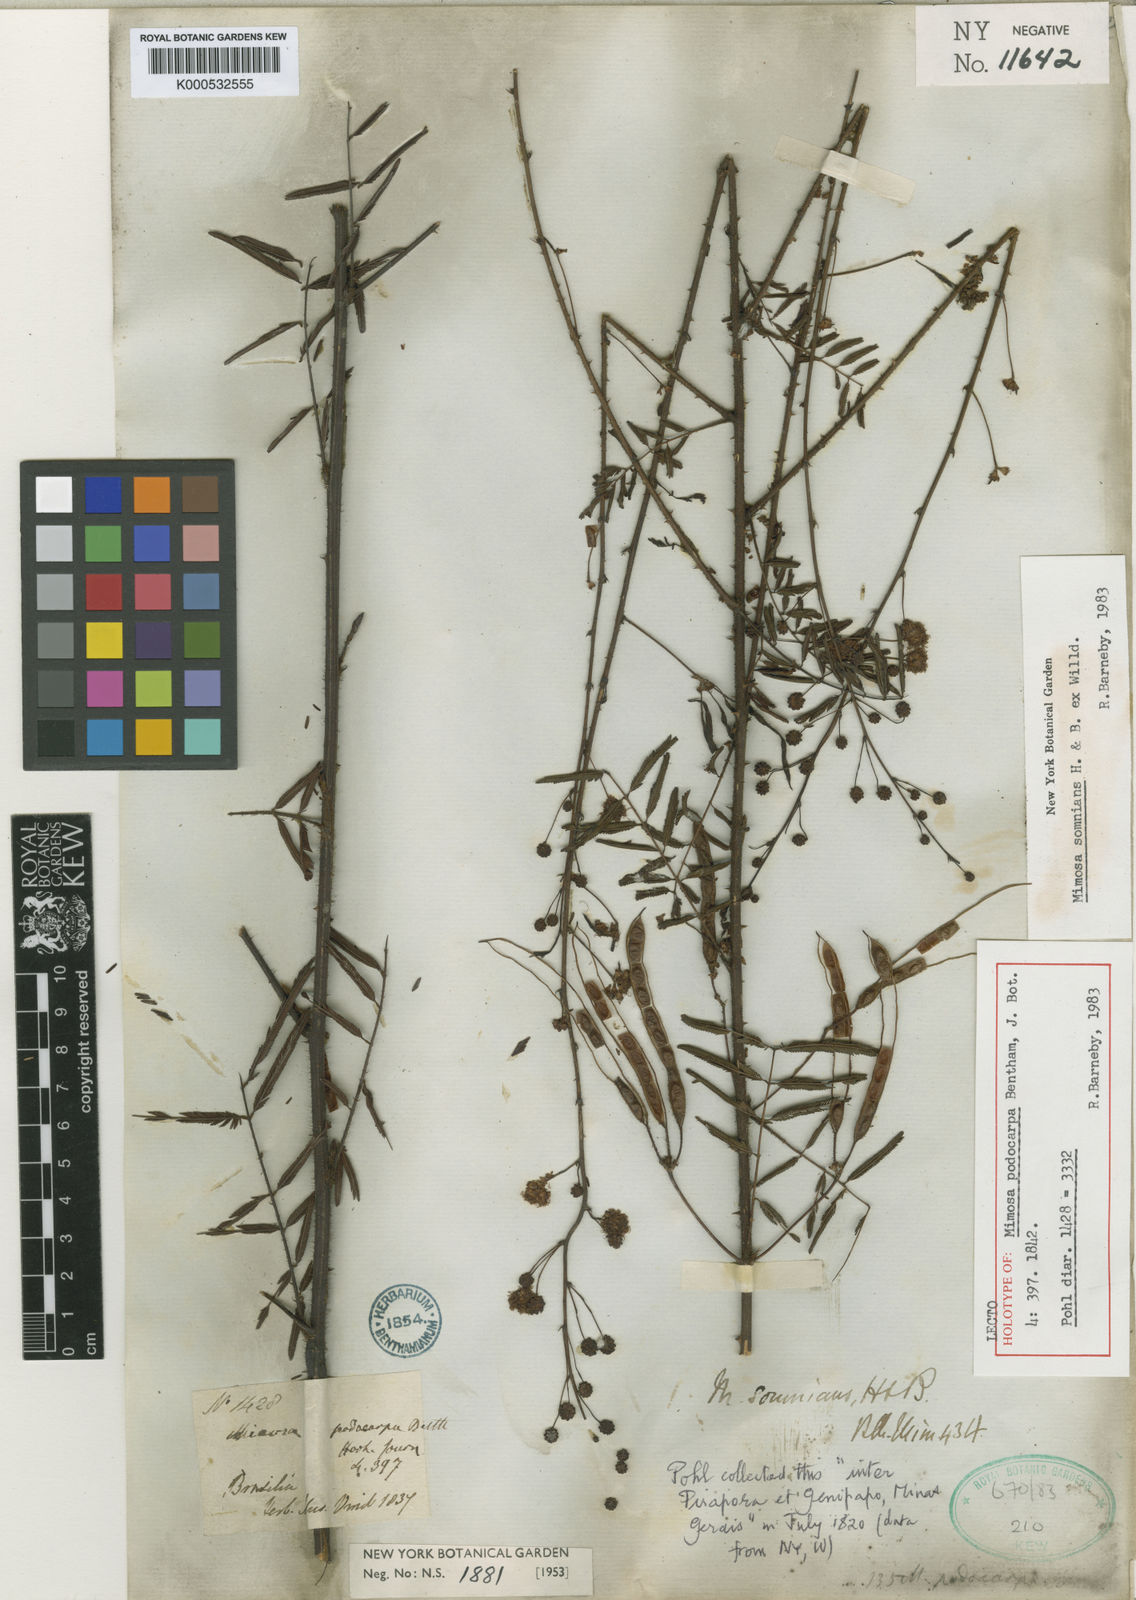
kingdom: Plantae
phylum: Tracheophyta
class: Magnoliopsida
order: Fabales
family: Fabaceae
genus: Mimosa
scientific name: Mimosa somnians
